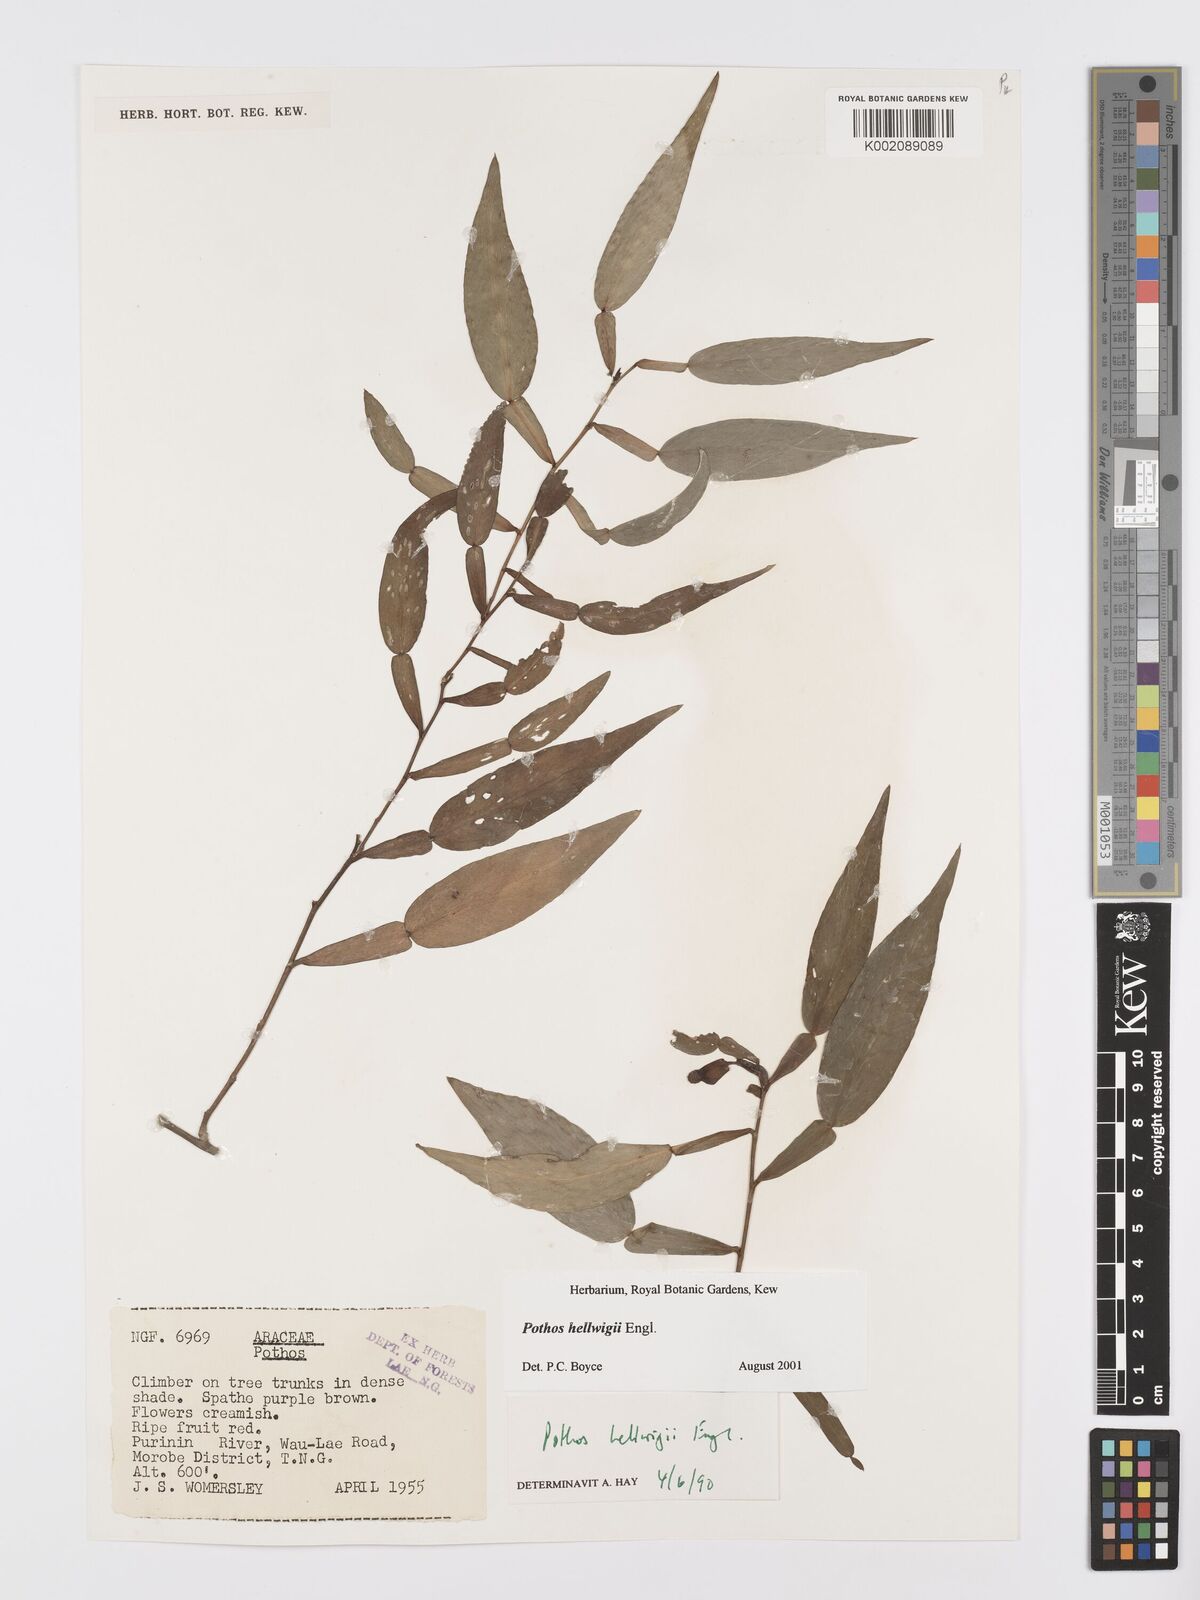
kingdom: Plantae
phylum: Tracheophyta
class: Liliopsida
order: Alismatales
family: Araceae
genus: Pothos
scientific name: Pothos hellwigii
